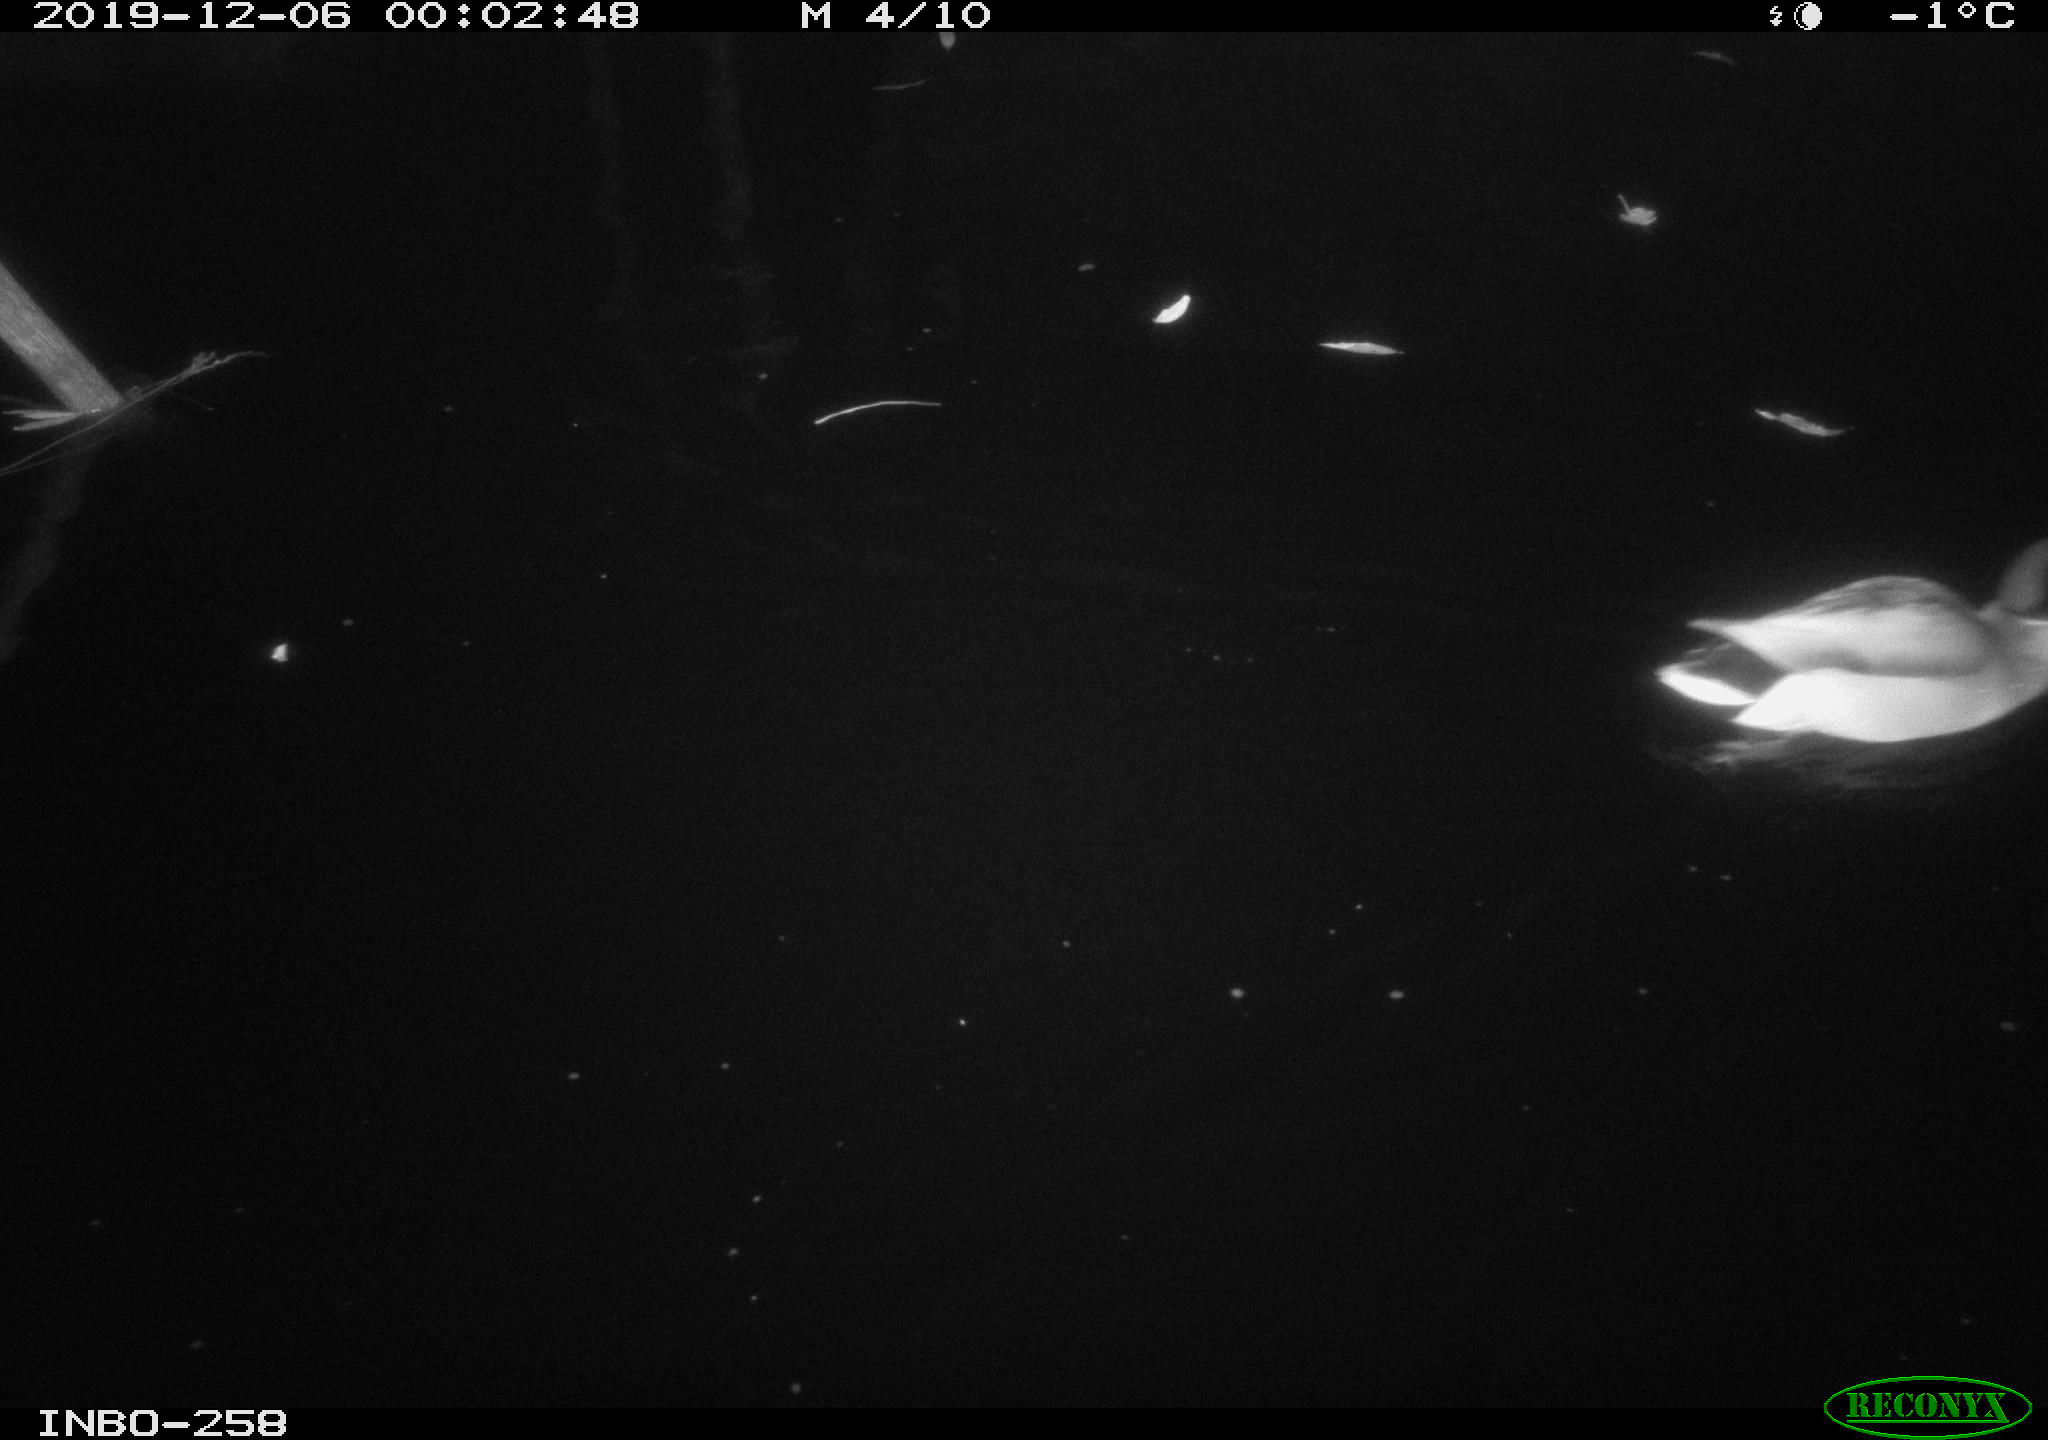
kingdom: Animalia
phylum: Chordata
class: Aves
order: Anseriformes
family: Anatidae
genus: Anas
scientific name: Anas platyrhynchos
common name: Mallard
